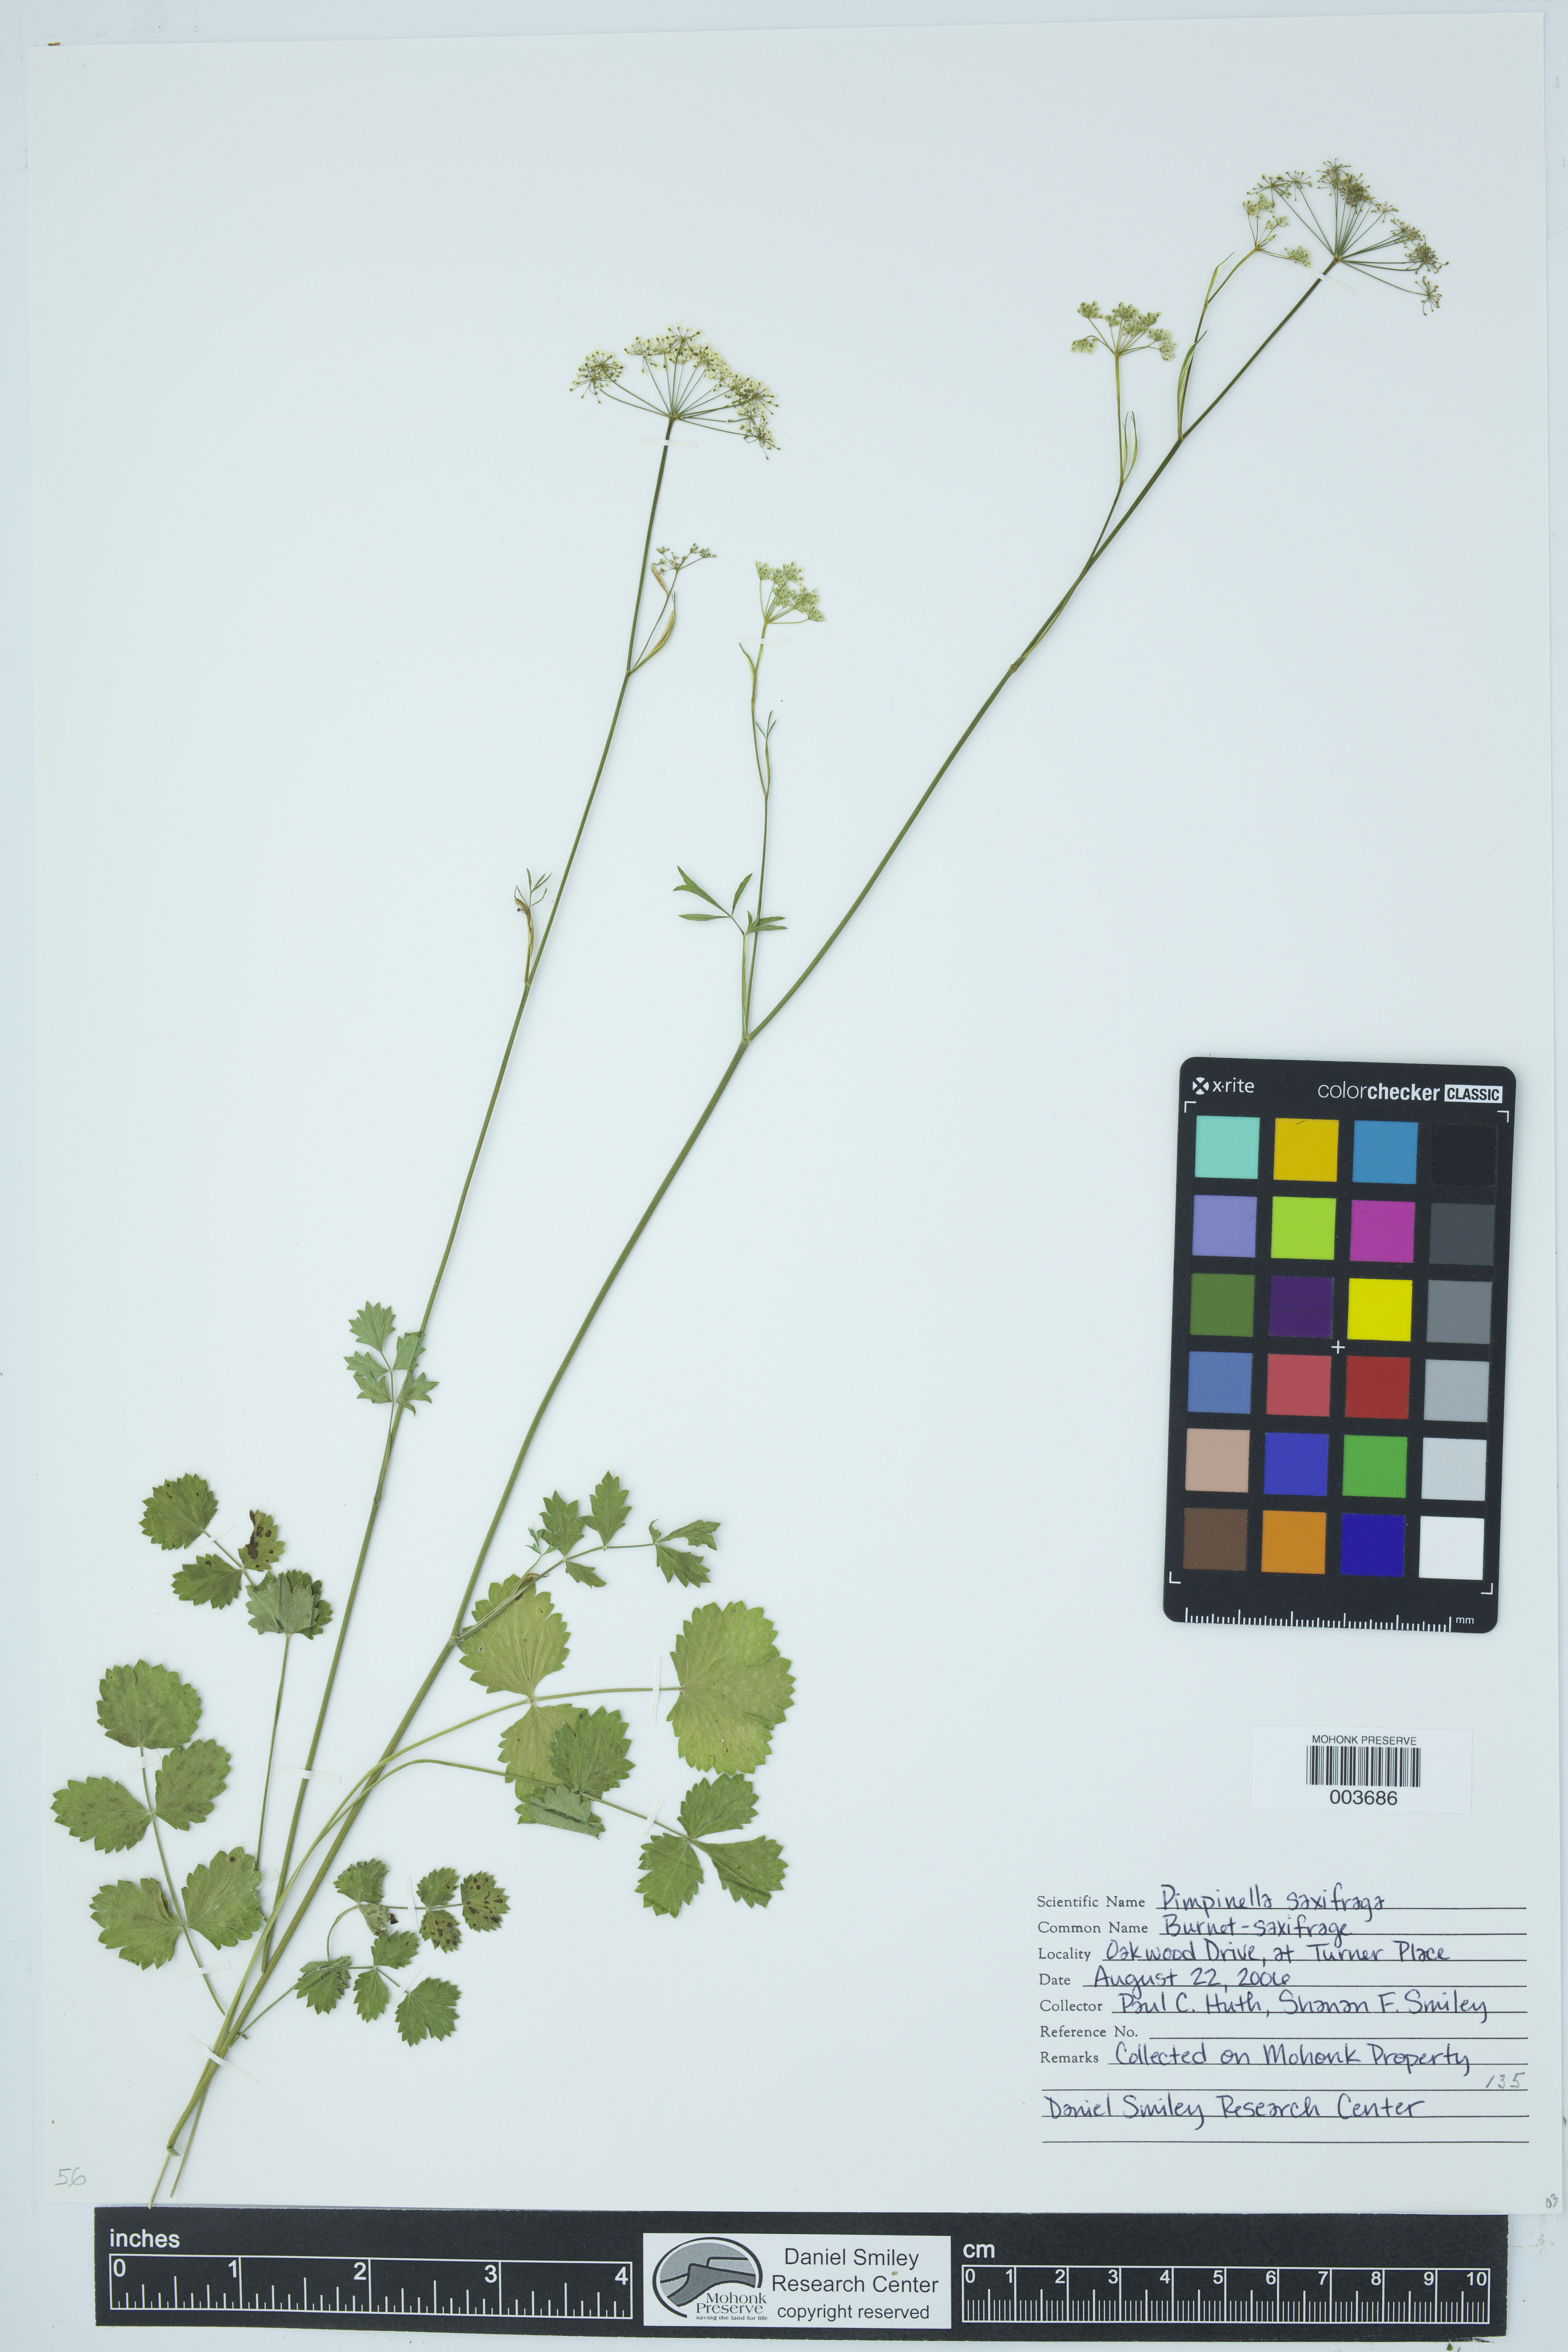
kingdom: Plantae
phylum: Tracheophyta
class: Magnoliopsida
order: Apiales
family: Apiaceae
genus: Pimpinella
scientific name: Pimpinella saxifraga
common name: Burnet-saxifrage
